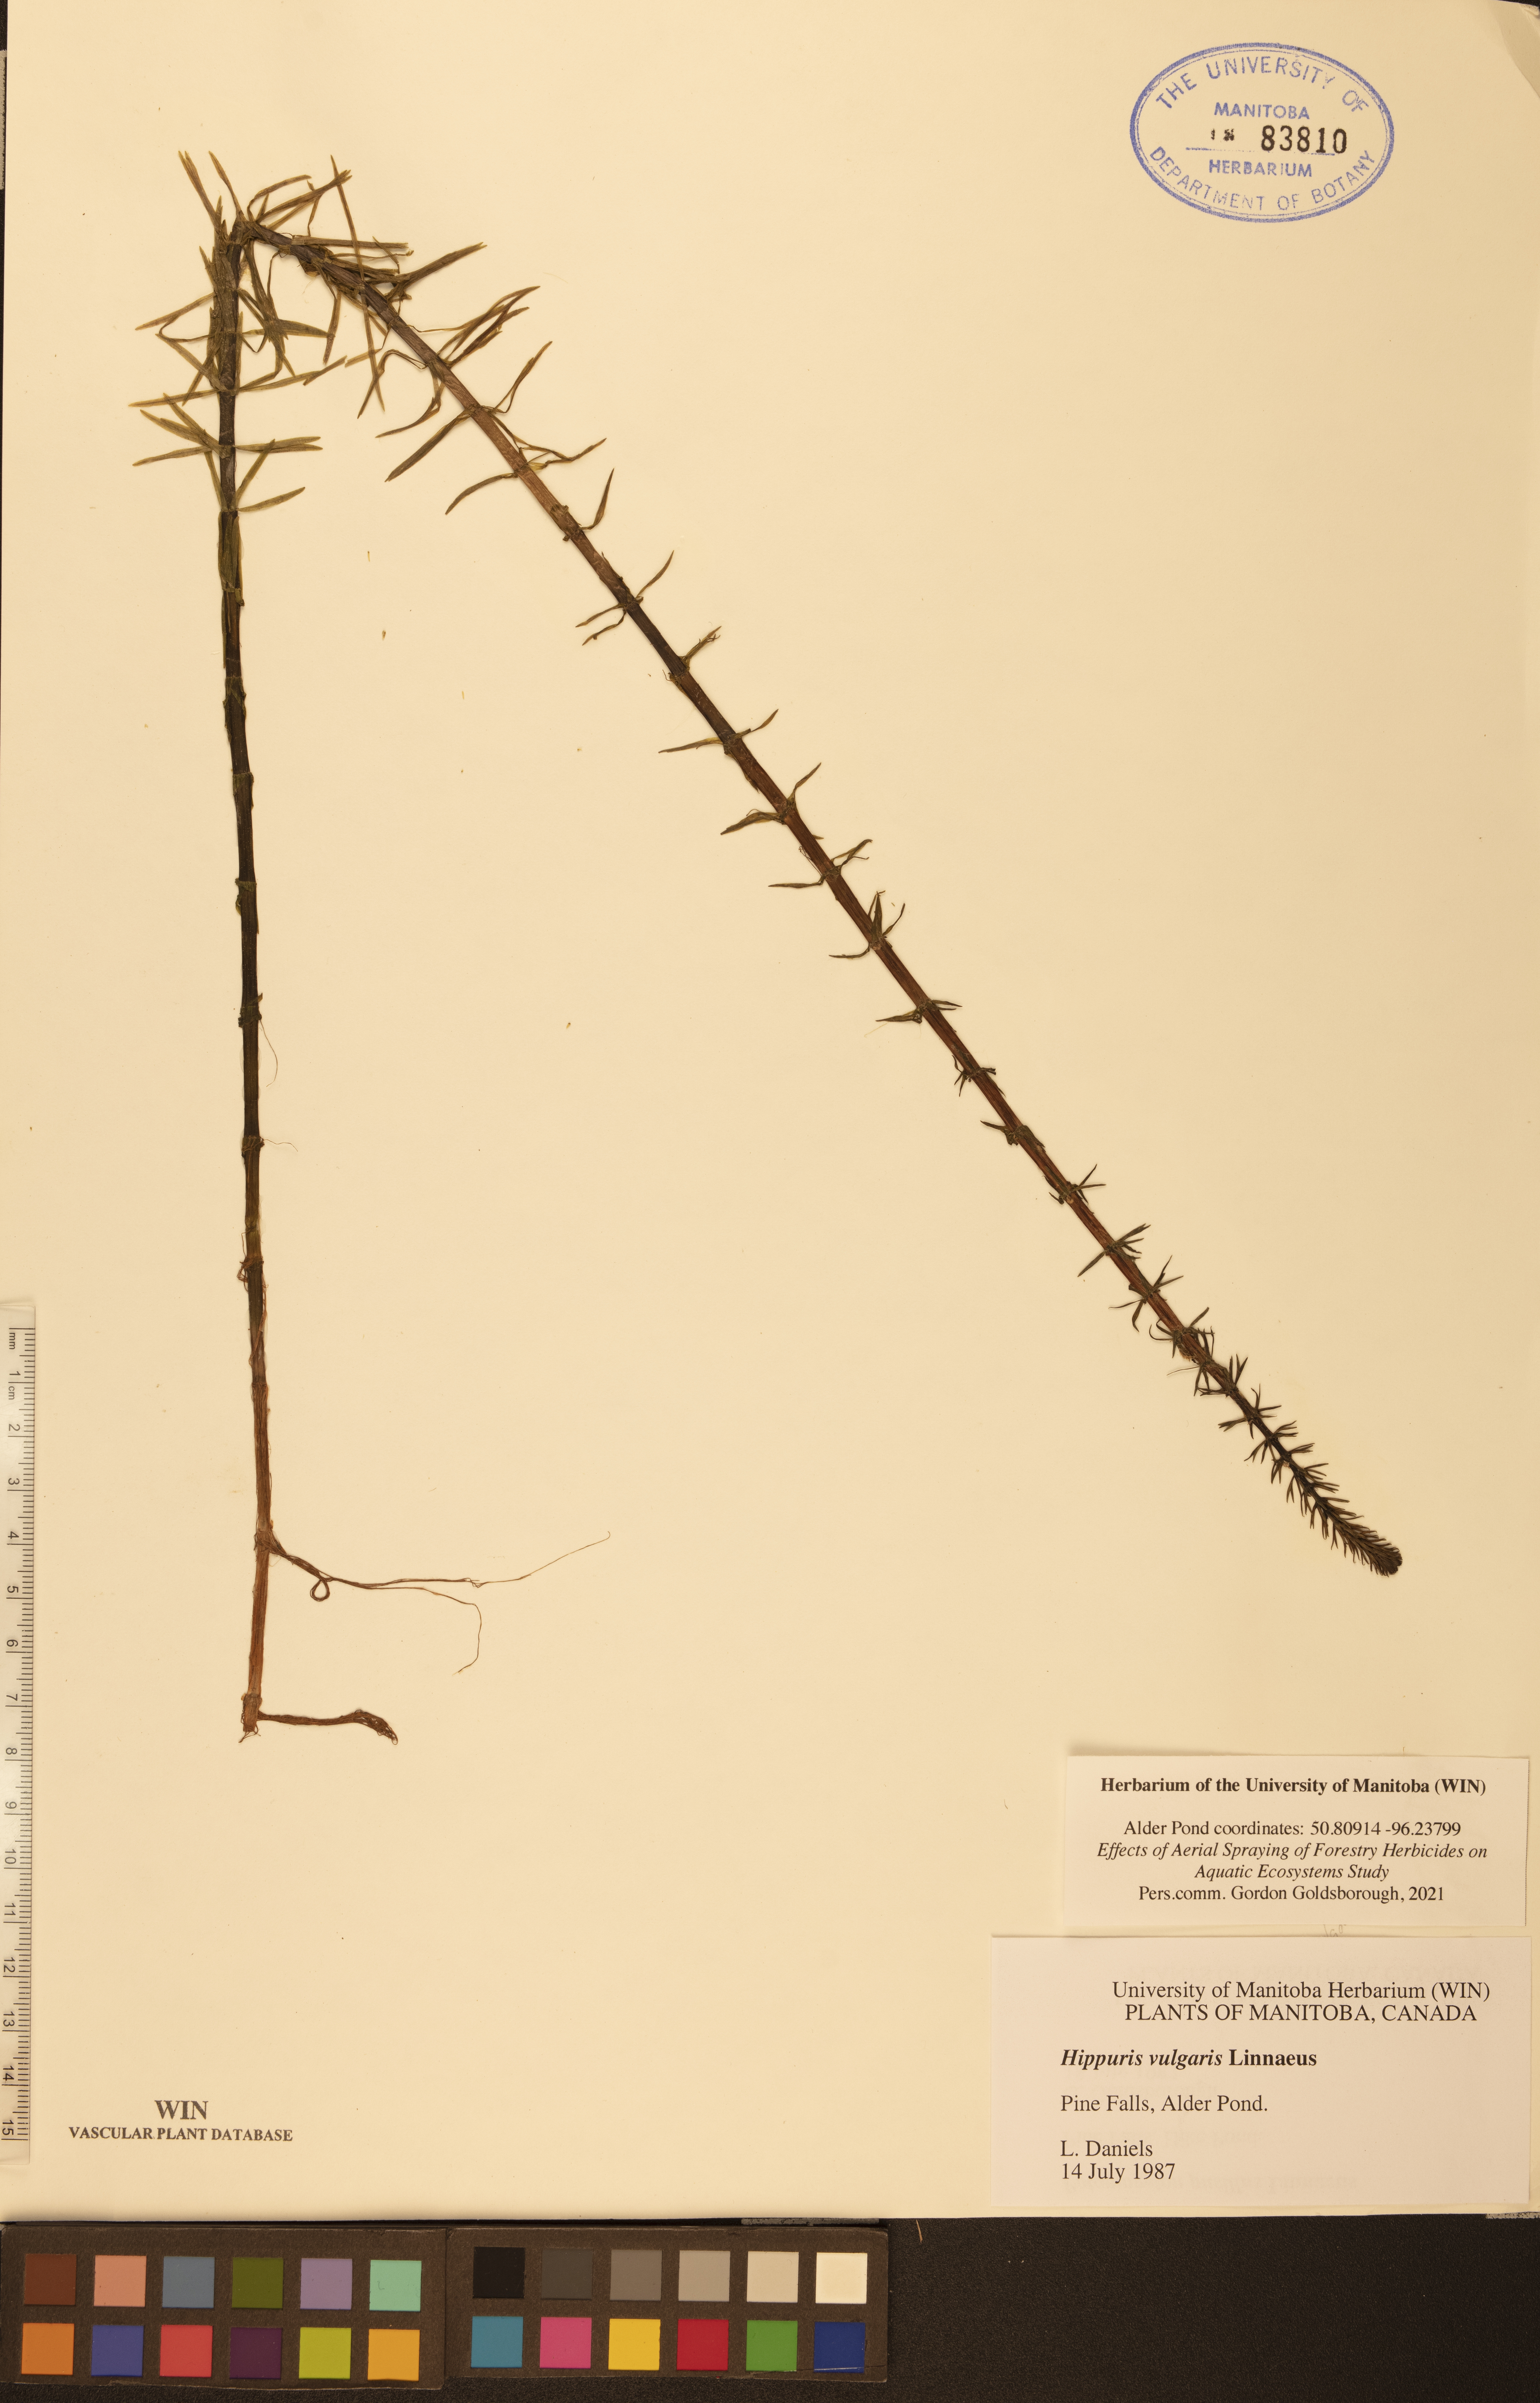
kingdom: Plantae
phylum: Tracheophyta
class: Magnoliopsida
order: Lamiales
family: Plantaginaceae
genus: Hippuris
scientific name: Hippuris vulgaris
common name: Mare's-tail
